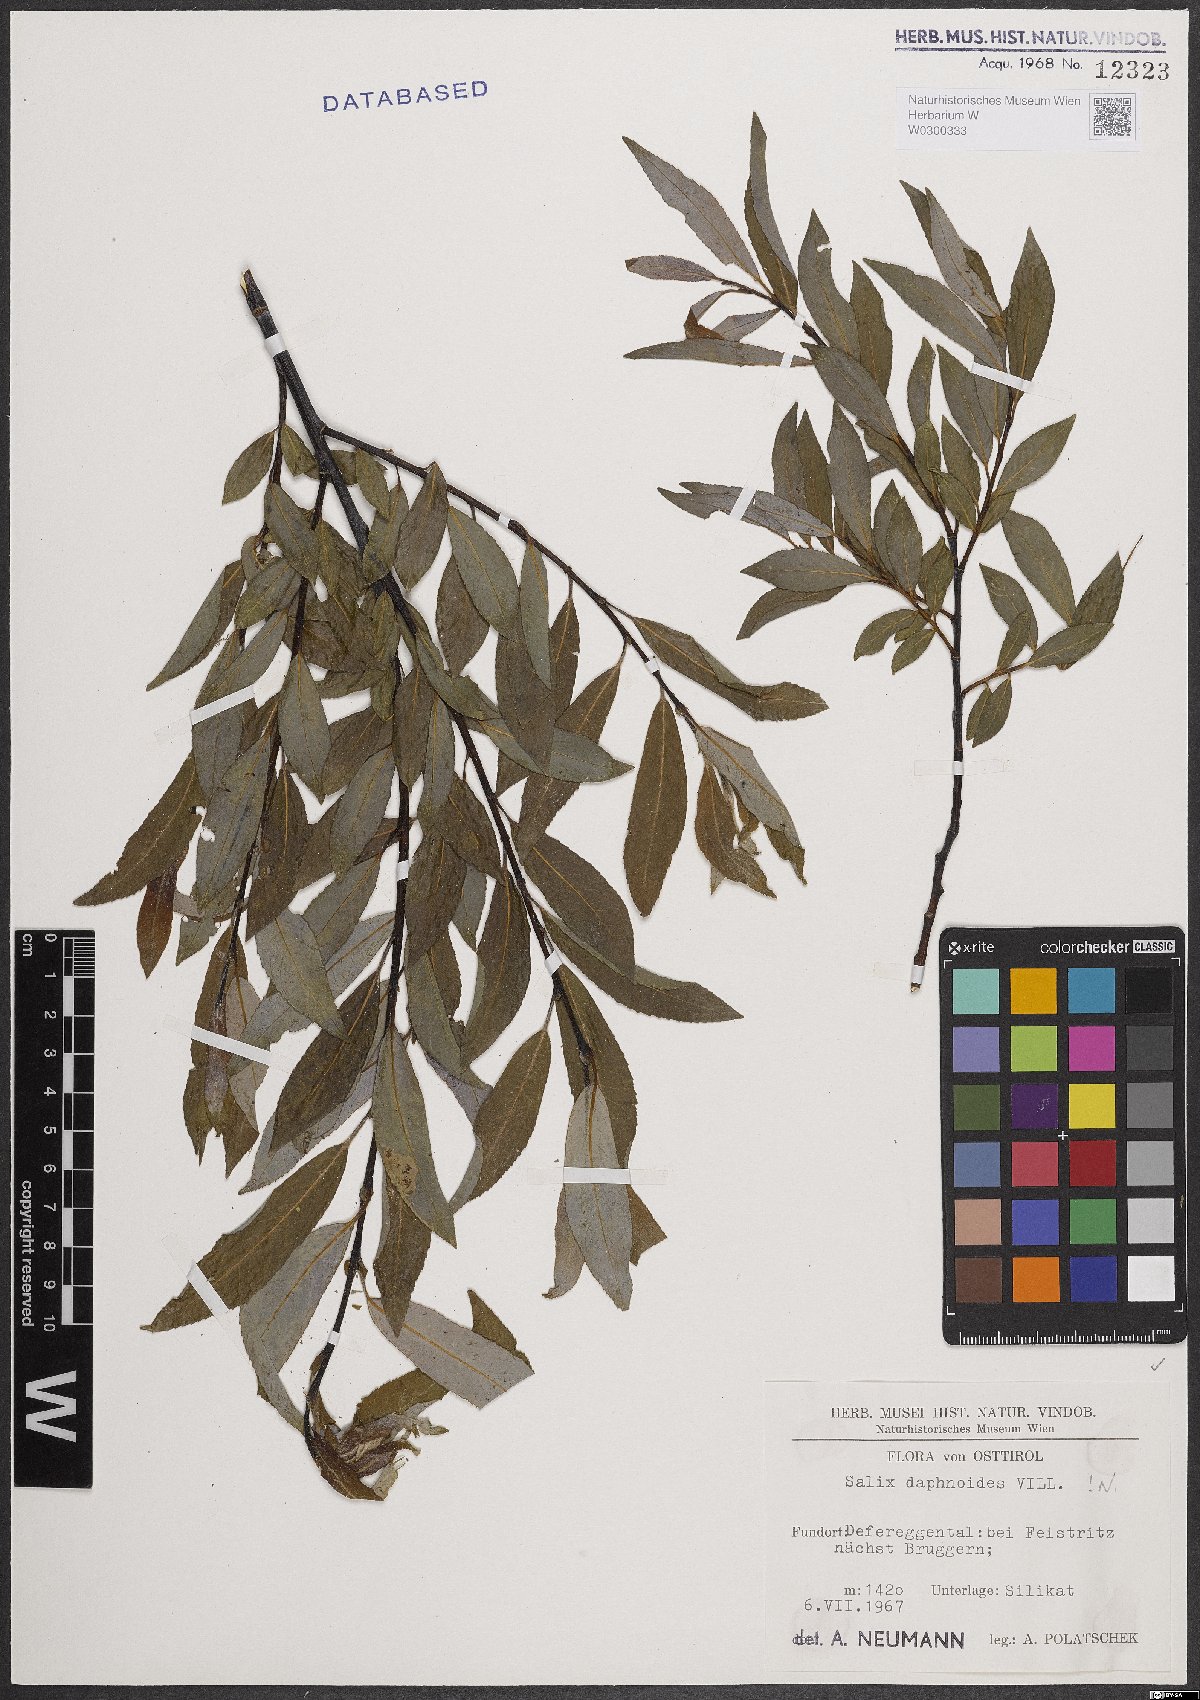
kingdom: Plantae
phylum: Tracheophyta
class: Magnoliopsida
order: Malpighiales
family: Salicaceae
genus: Salix
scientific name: Salix daphnoides
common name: European violet-willow
